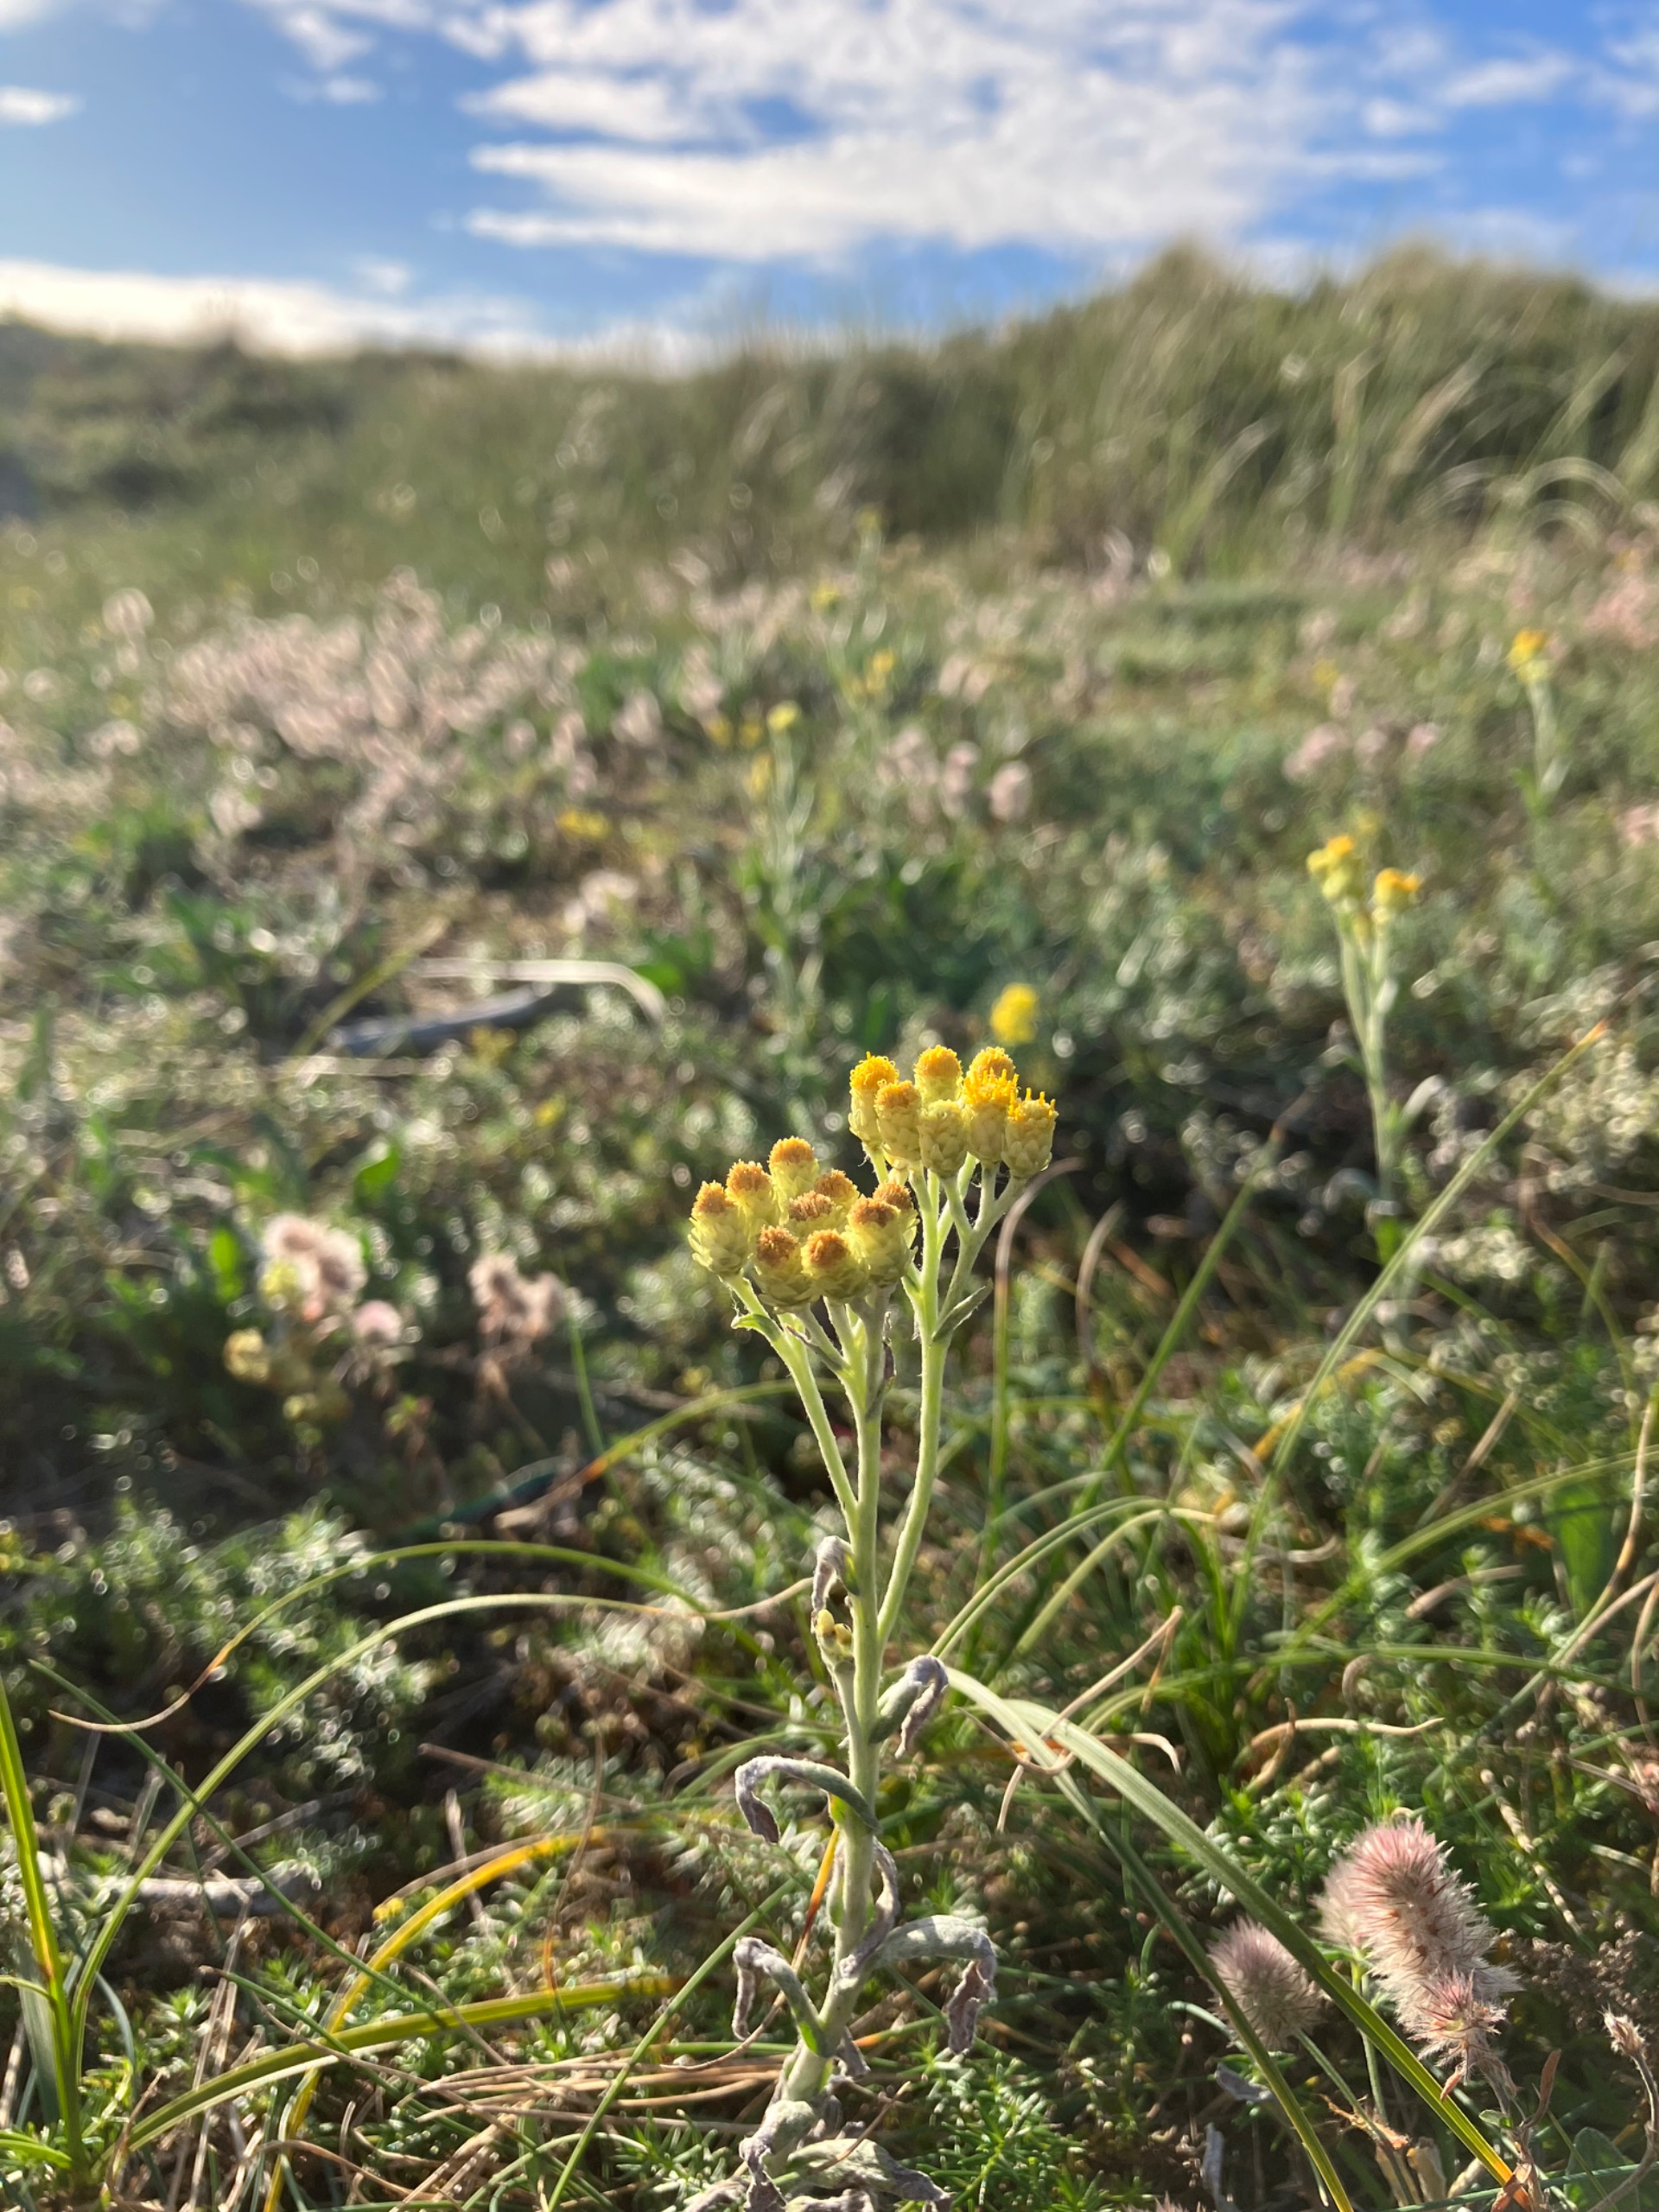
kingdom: Plantae
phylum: Tracheophyta
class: Magnoliopsida
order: Asterales
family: Asteraceae
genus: Helichrysum
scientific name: Helichrysum arenarium
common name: Gul evighedsblomst
